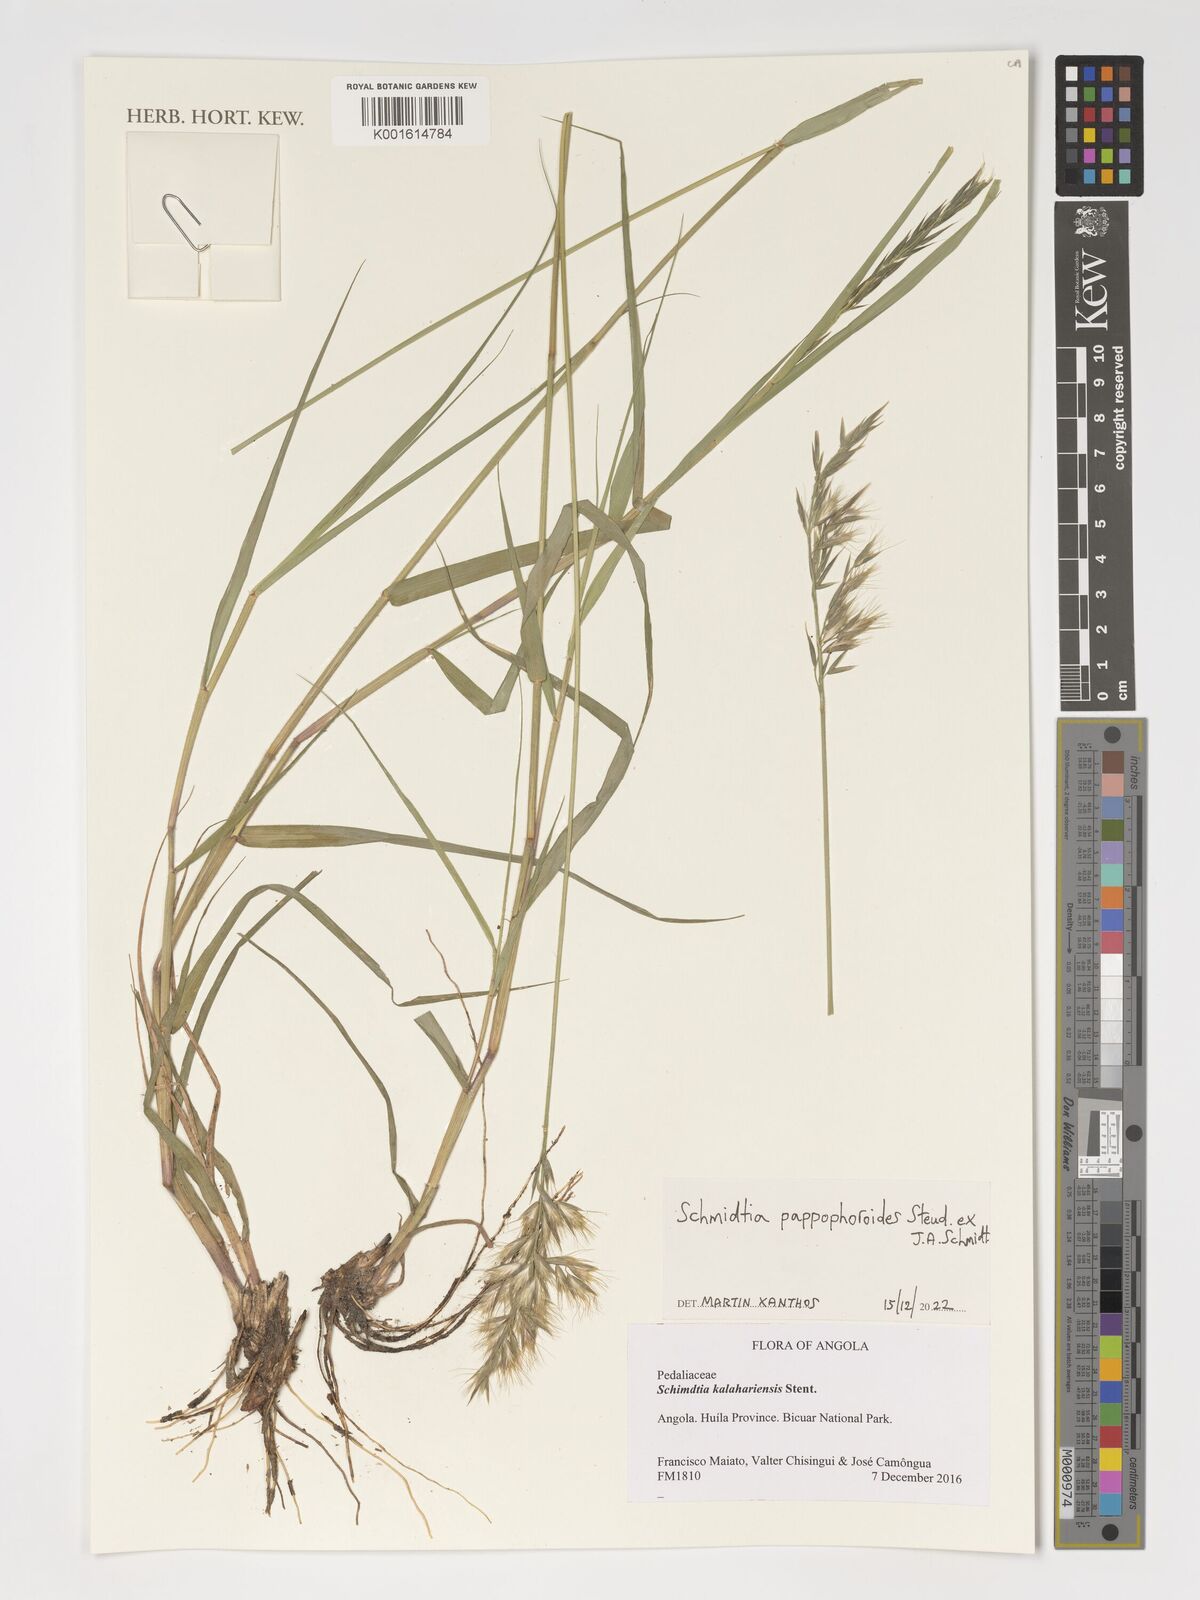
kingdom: Plantae
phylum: Tracheophyta
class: Liliopsida
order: Poales
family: Poaceae
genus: Schmidtia
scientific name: Schmidtia pappophoroides
